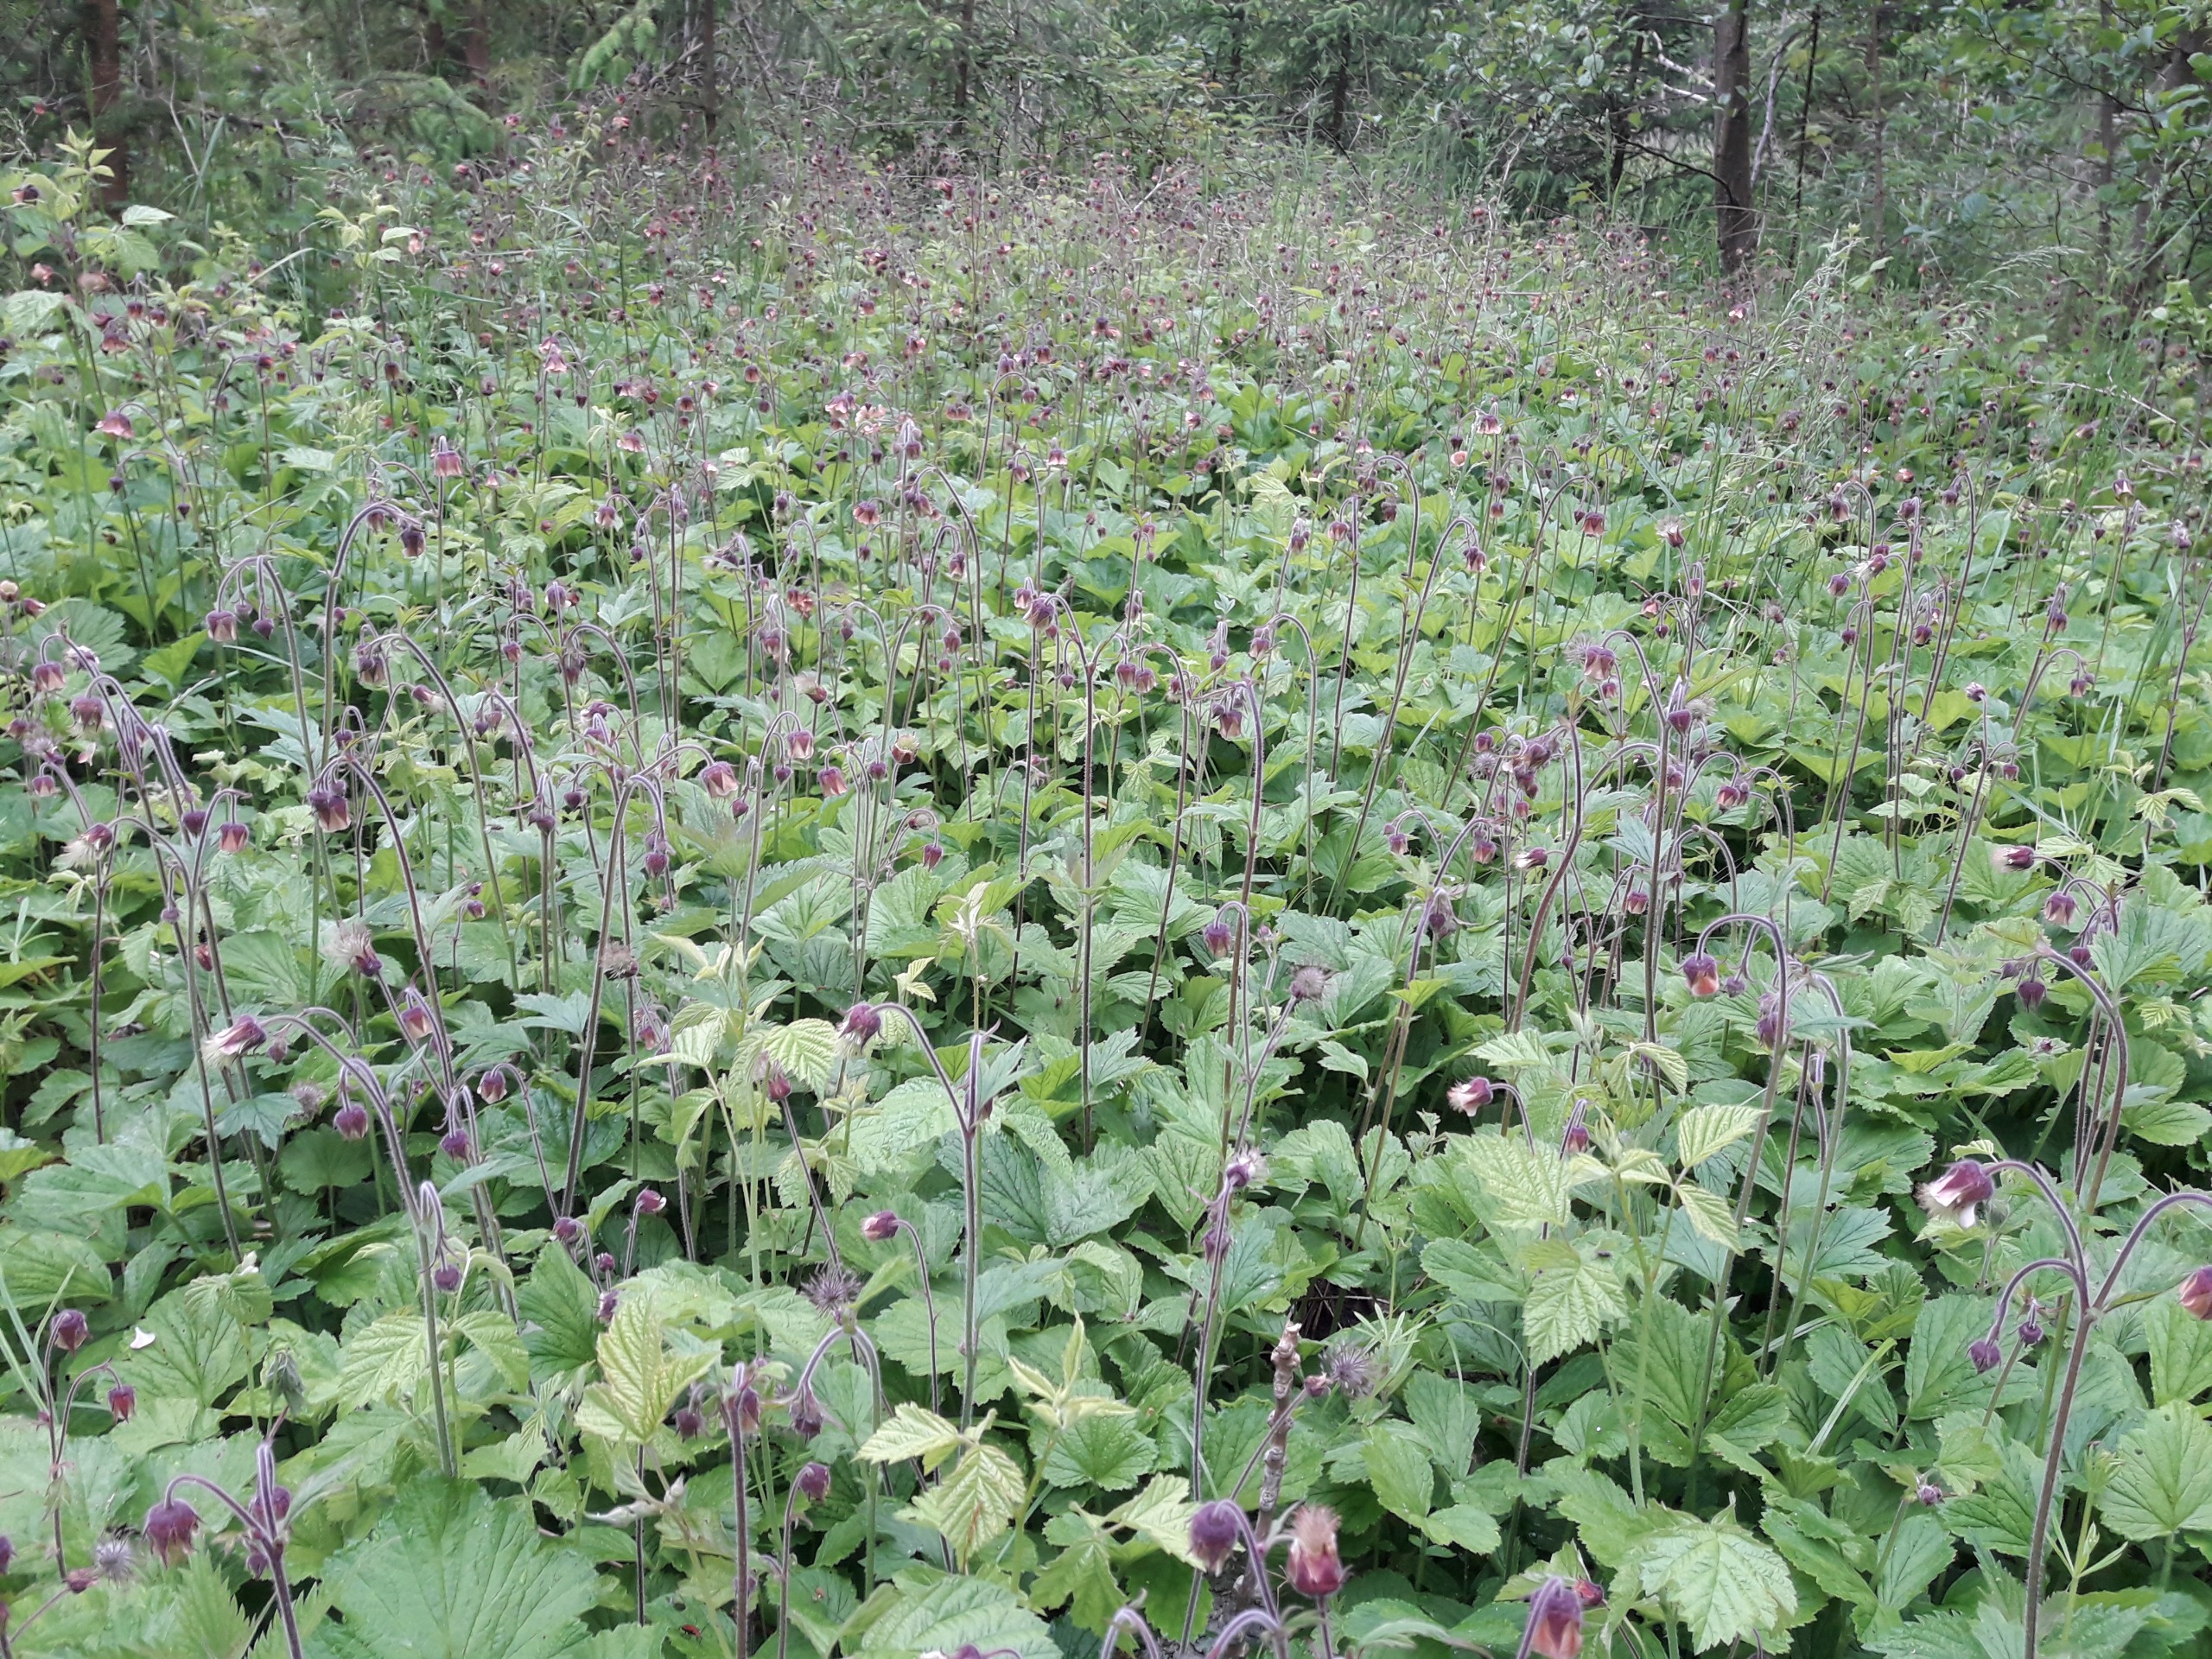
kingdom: Plantae
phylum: Tracheophyta
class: Magnoliopsida
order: Rosales
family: Rosaceae
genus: Geum
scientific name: Geum rivale
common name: Eng-nellikerod
